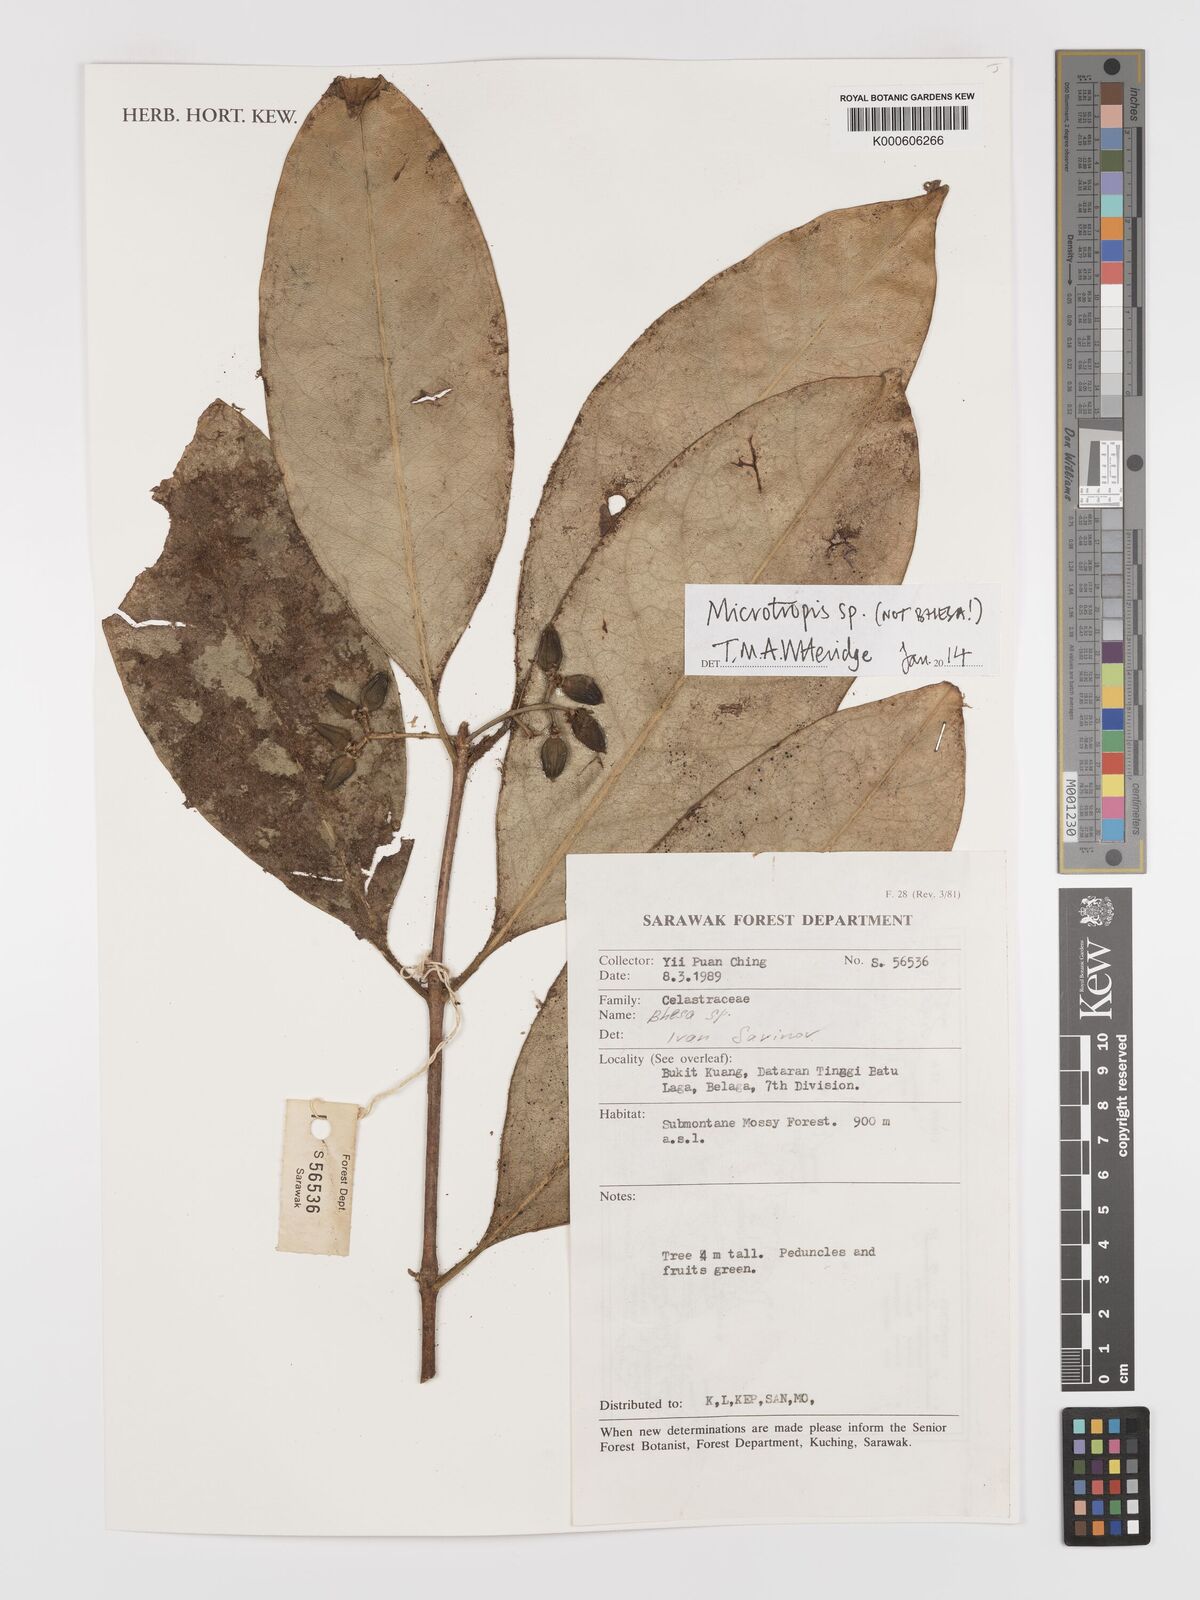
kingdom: Plantae
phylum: Tracheophyta
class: Magnoliopsida
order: Celastrales
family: Celastraceae
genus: Microtropis
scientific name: Microtropis
